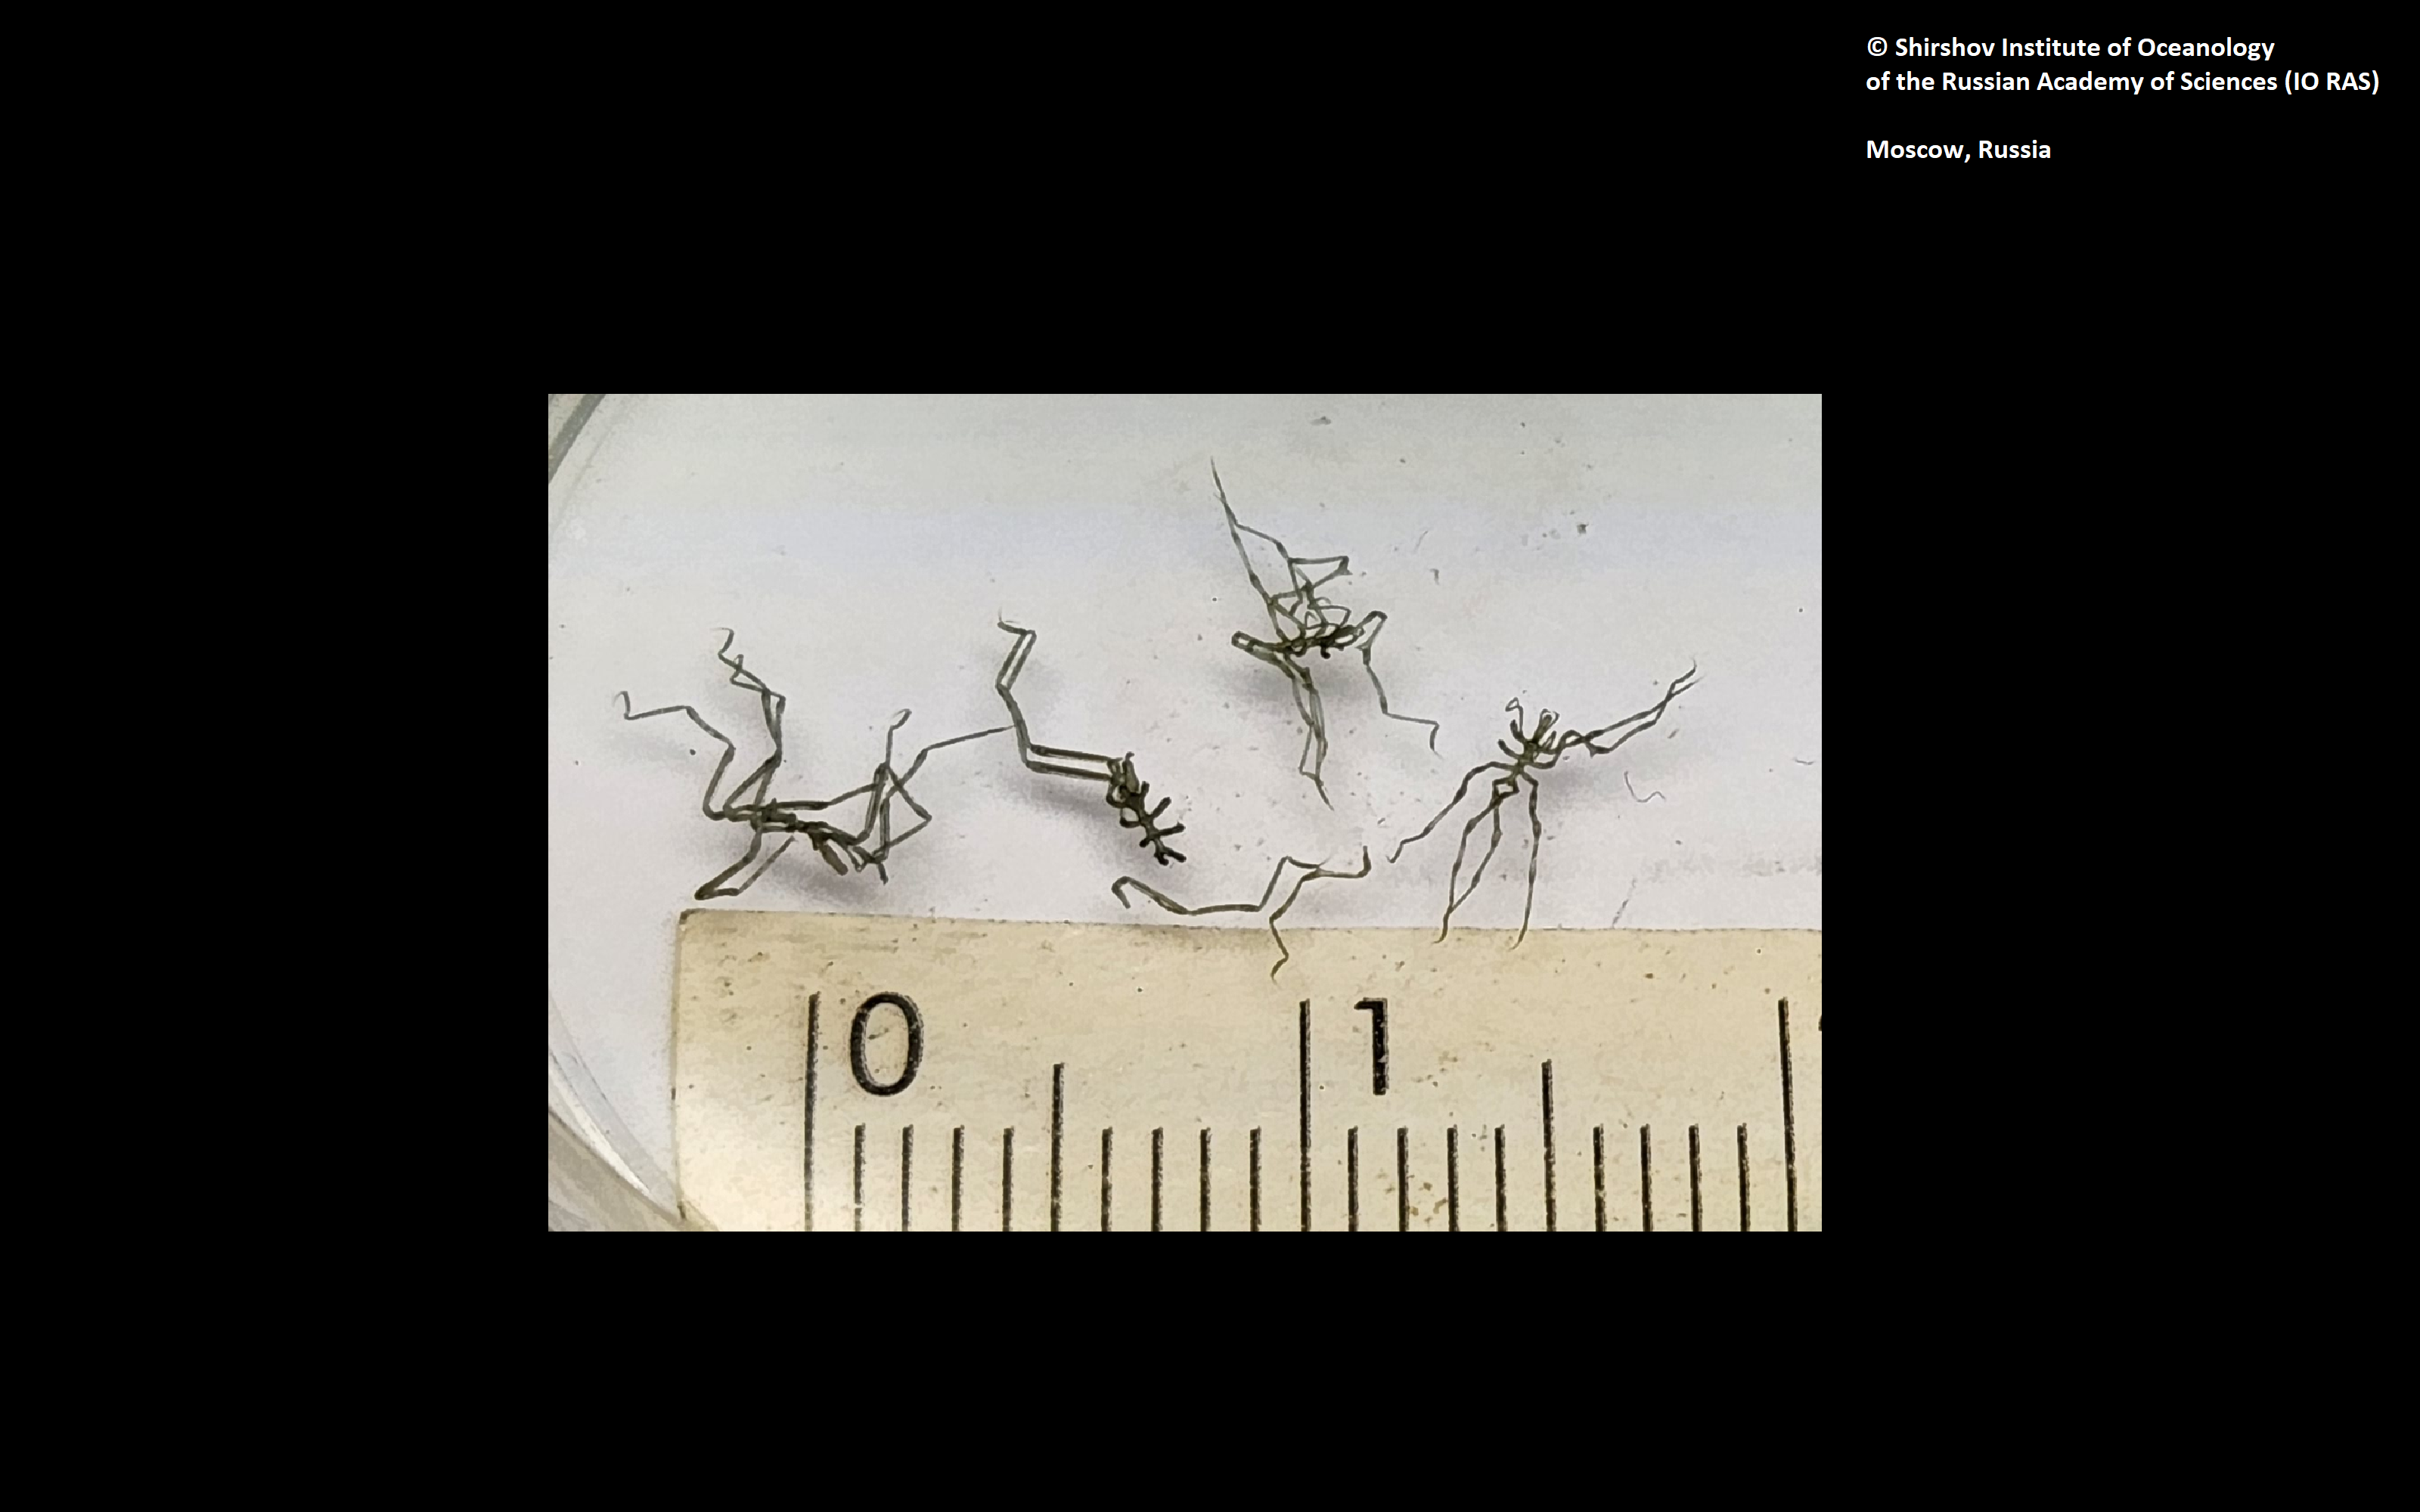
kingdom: Animalia
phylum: Arthropoda
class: Pycnogonida
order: Pantopoda
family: Phoxichilidiidae
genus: Anoplodactylus
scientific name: Anoplodactylus gibbifemoris
